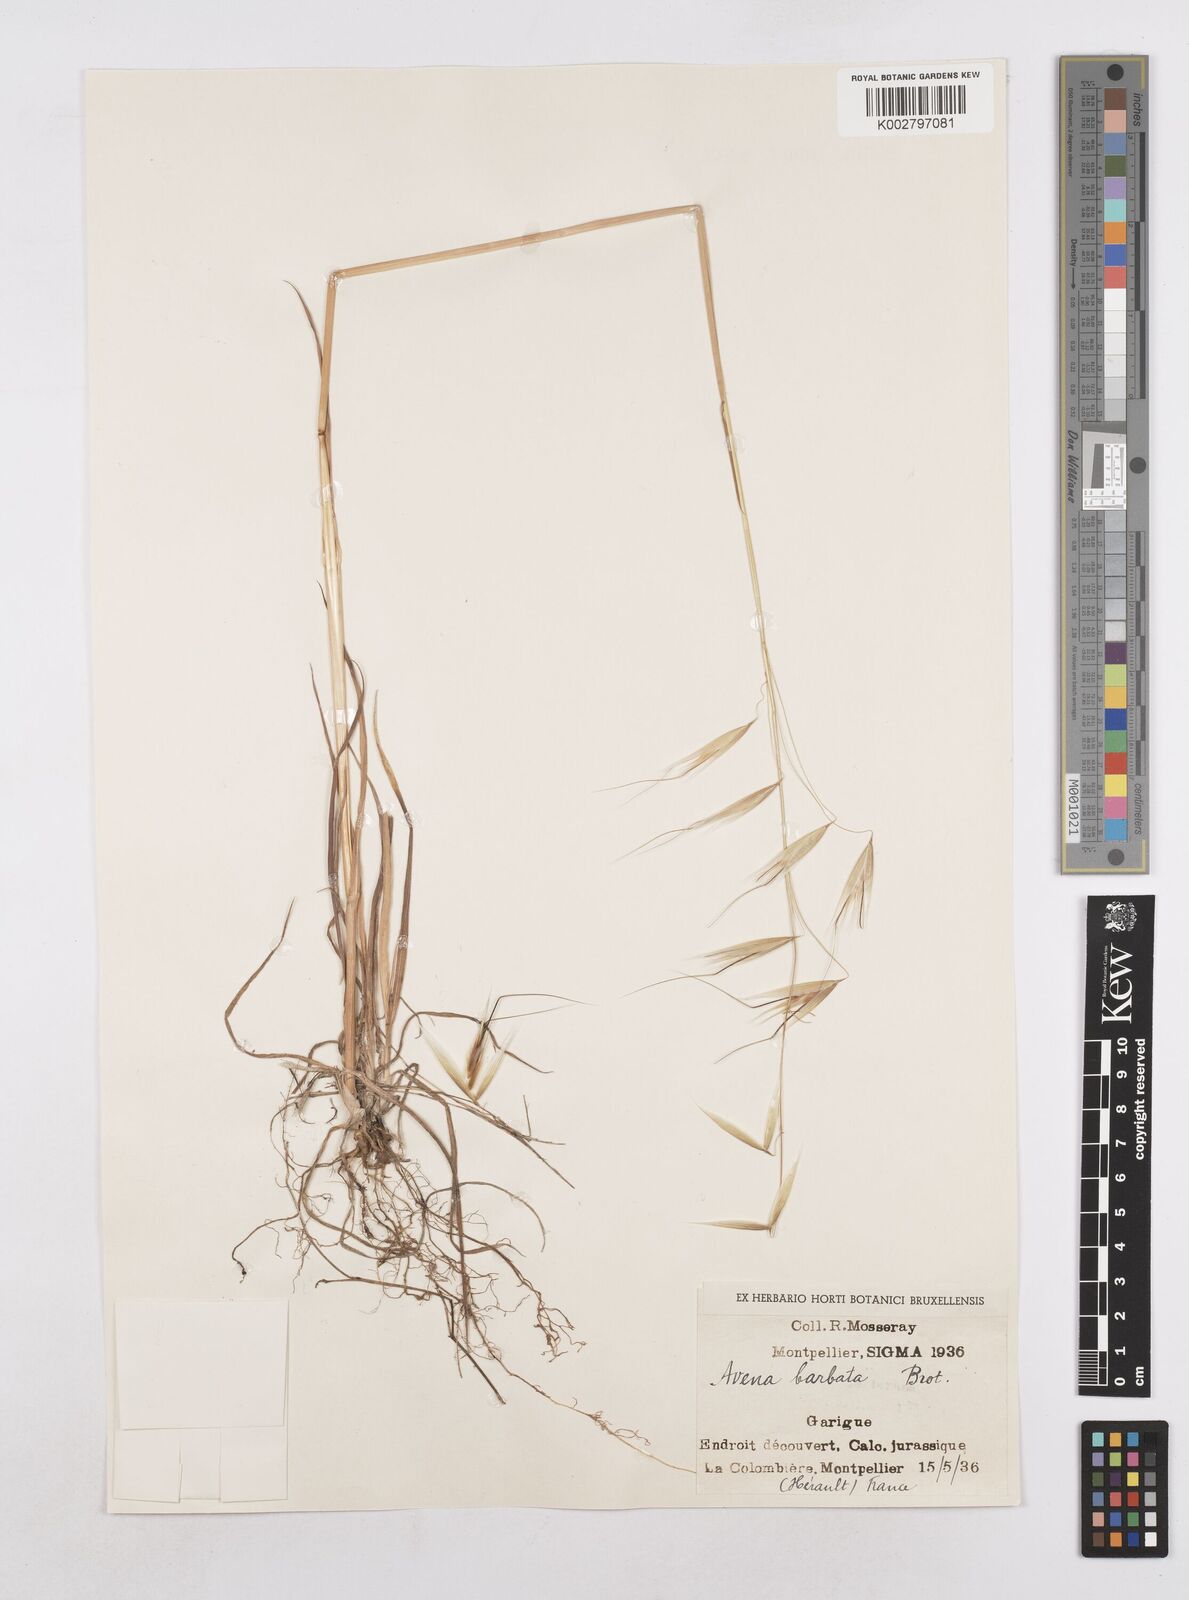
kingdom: Plantae
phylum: Tracheophyta
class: Liliopsida
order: Poales
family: Poaceae
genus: Avena
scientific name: Avena
